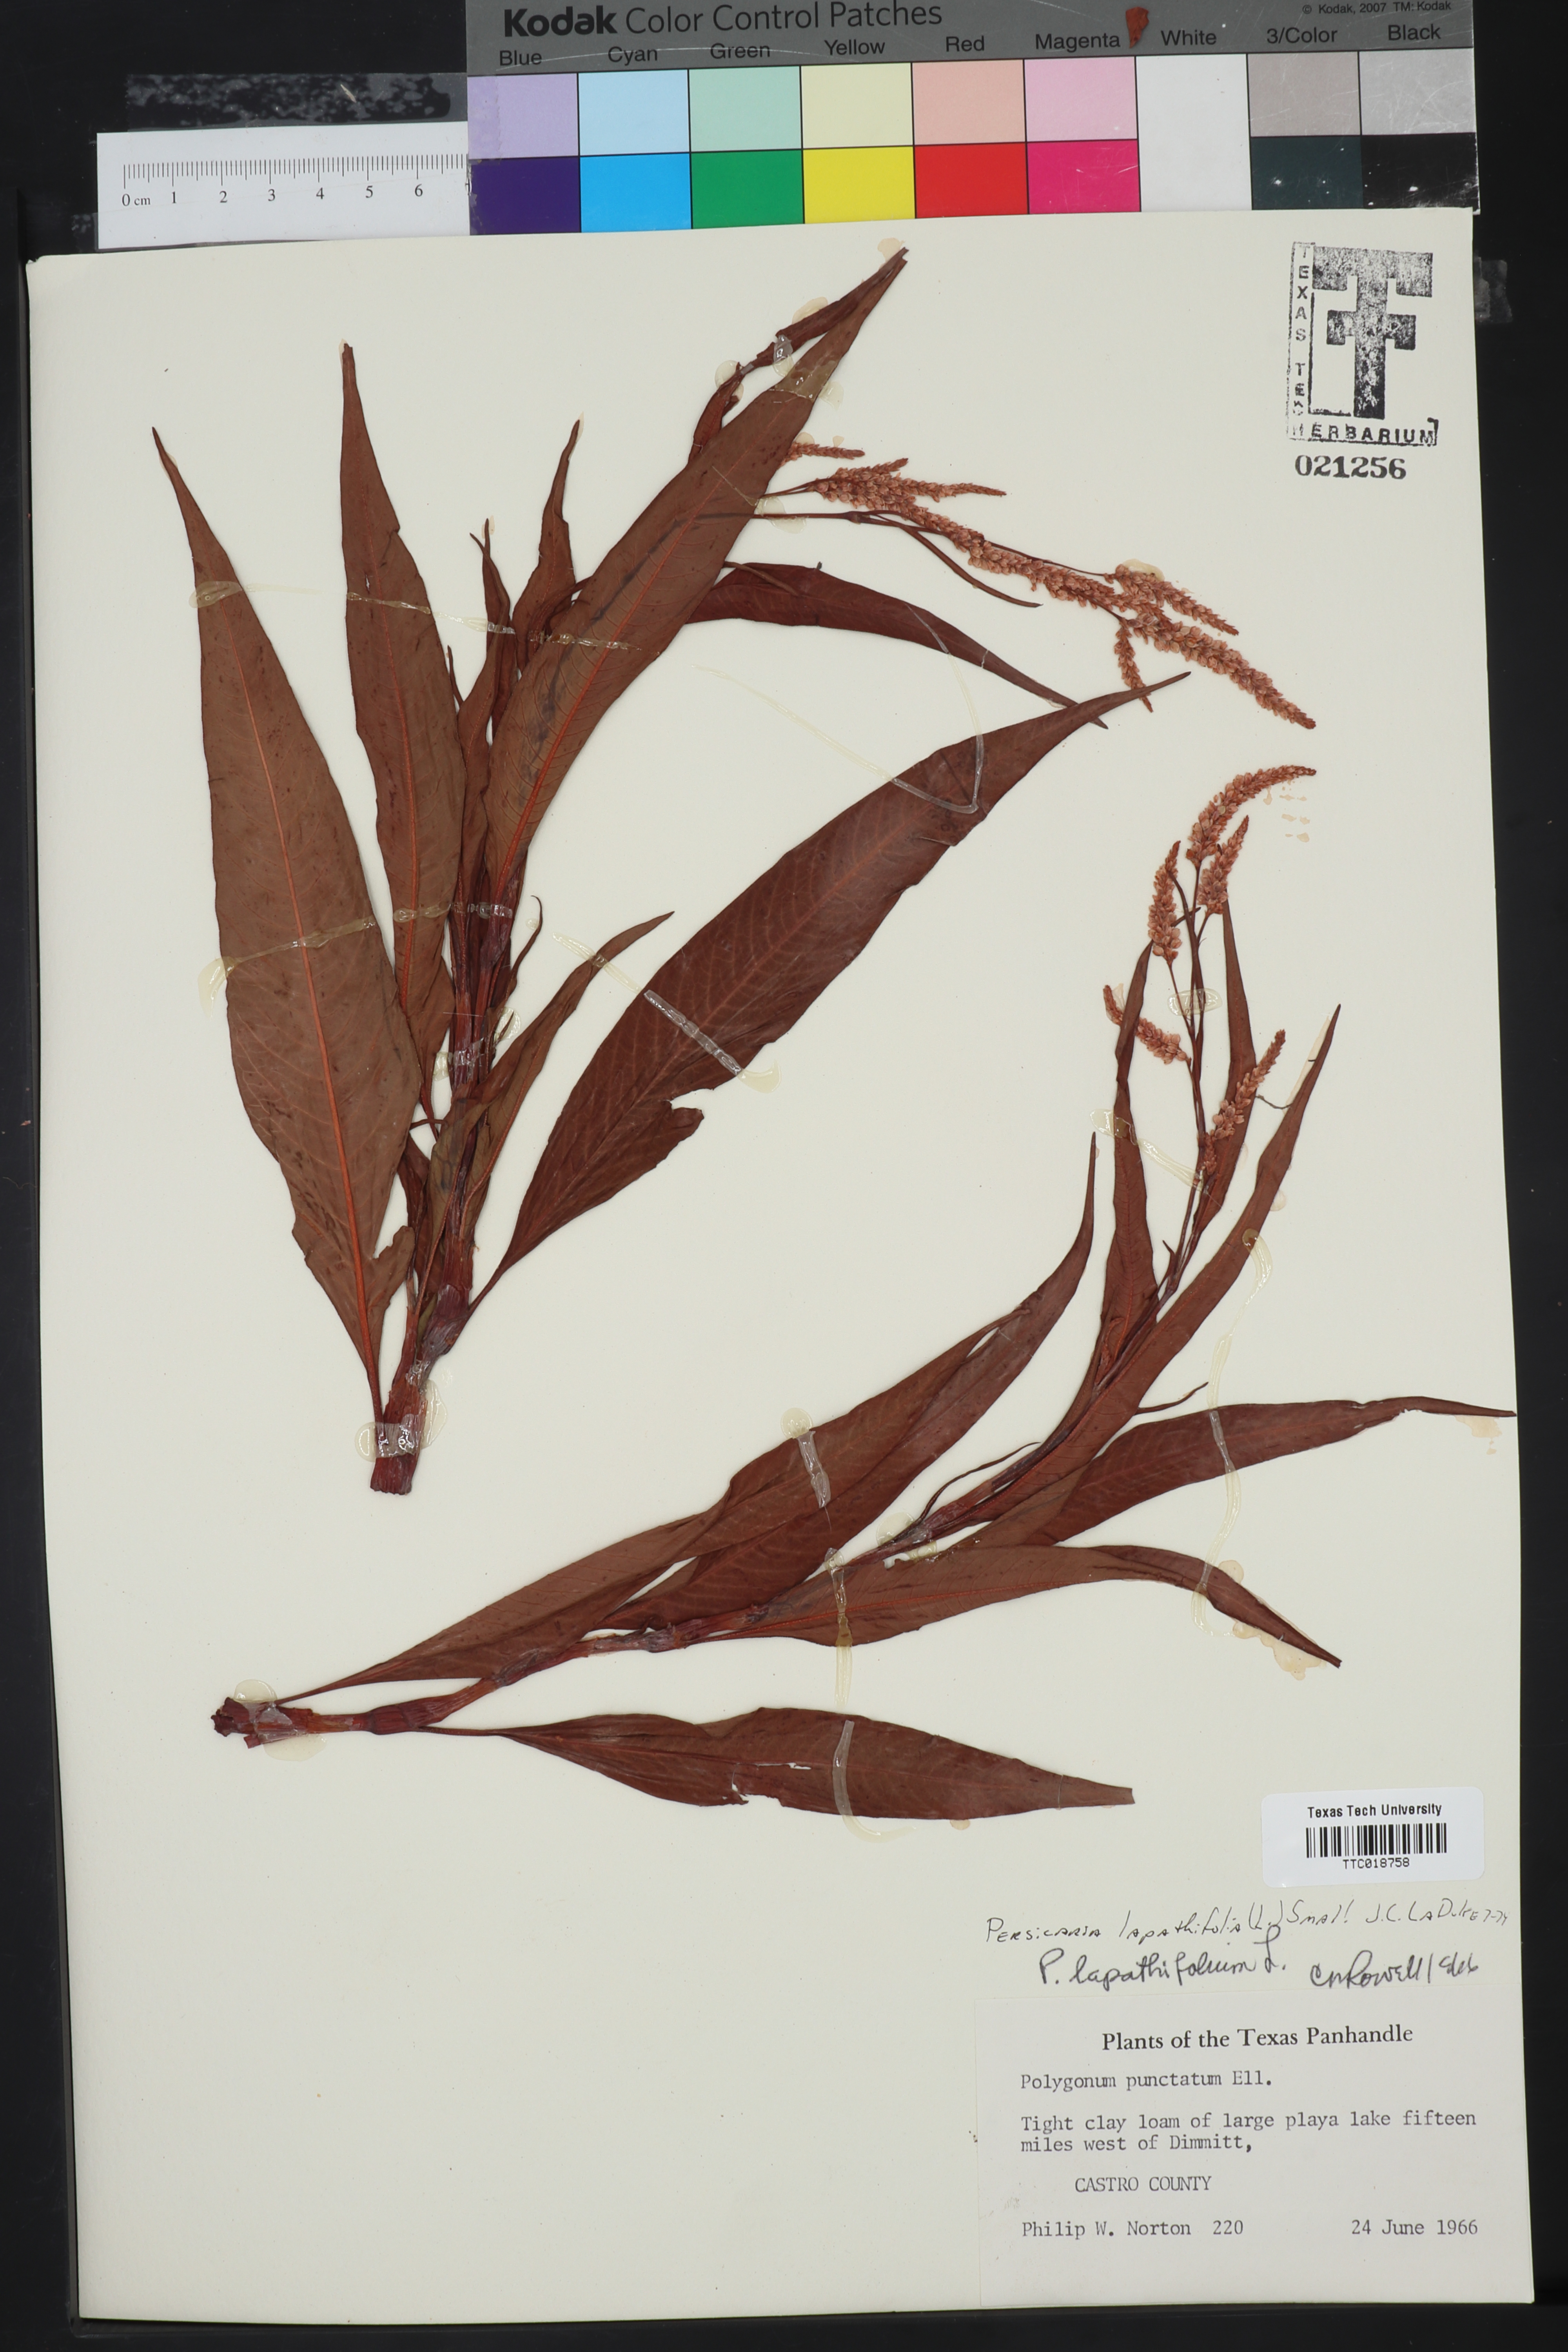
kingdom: Plantae
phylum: Tracheophyta
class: Magnoliopsida
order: Caryophyllales
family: Polygonaceae
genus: Persicaria
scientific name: Persicaria lapathifolia
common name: Curlytop knotweed
